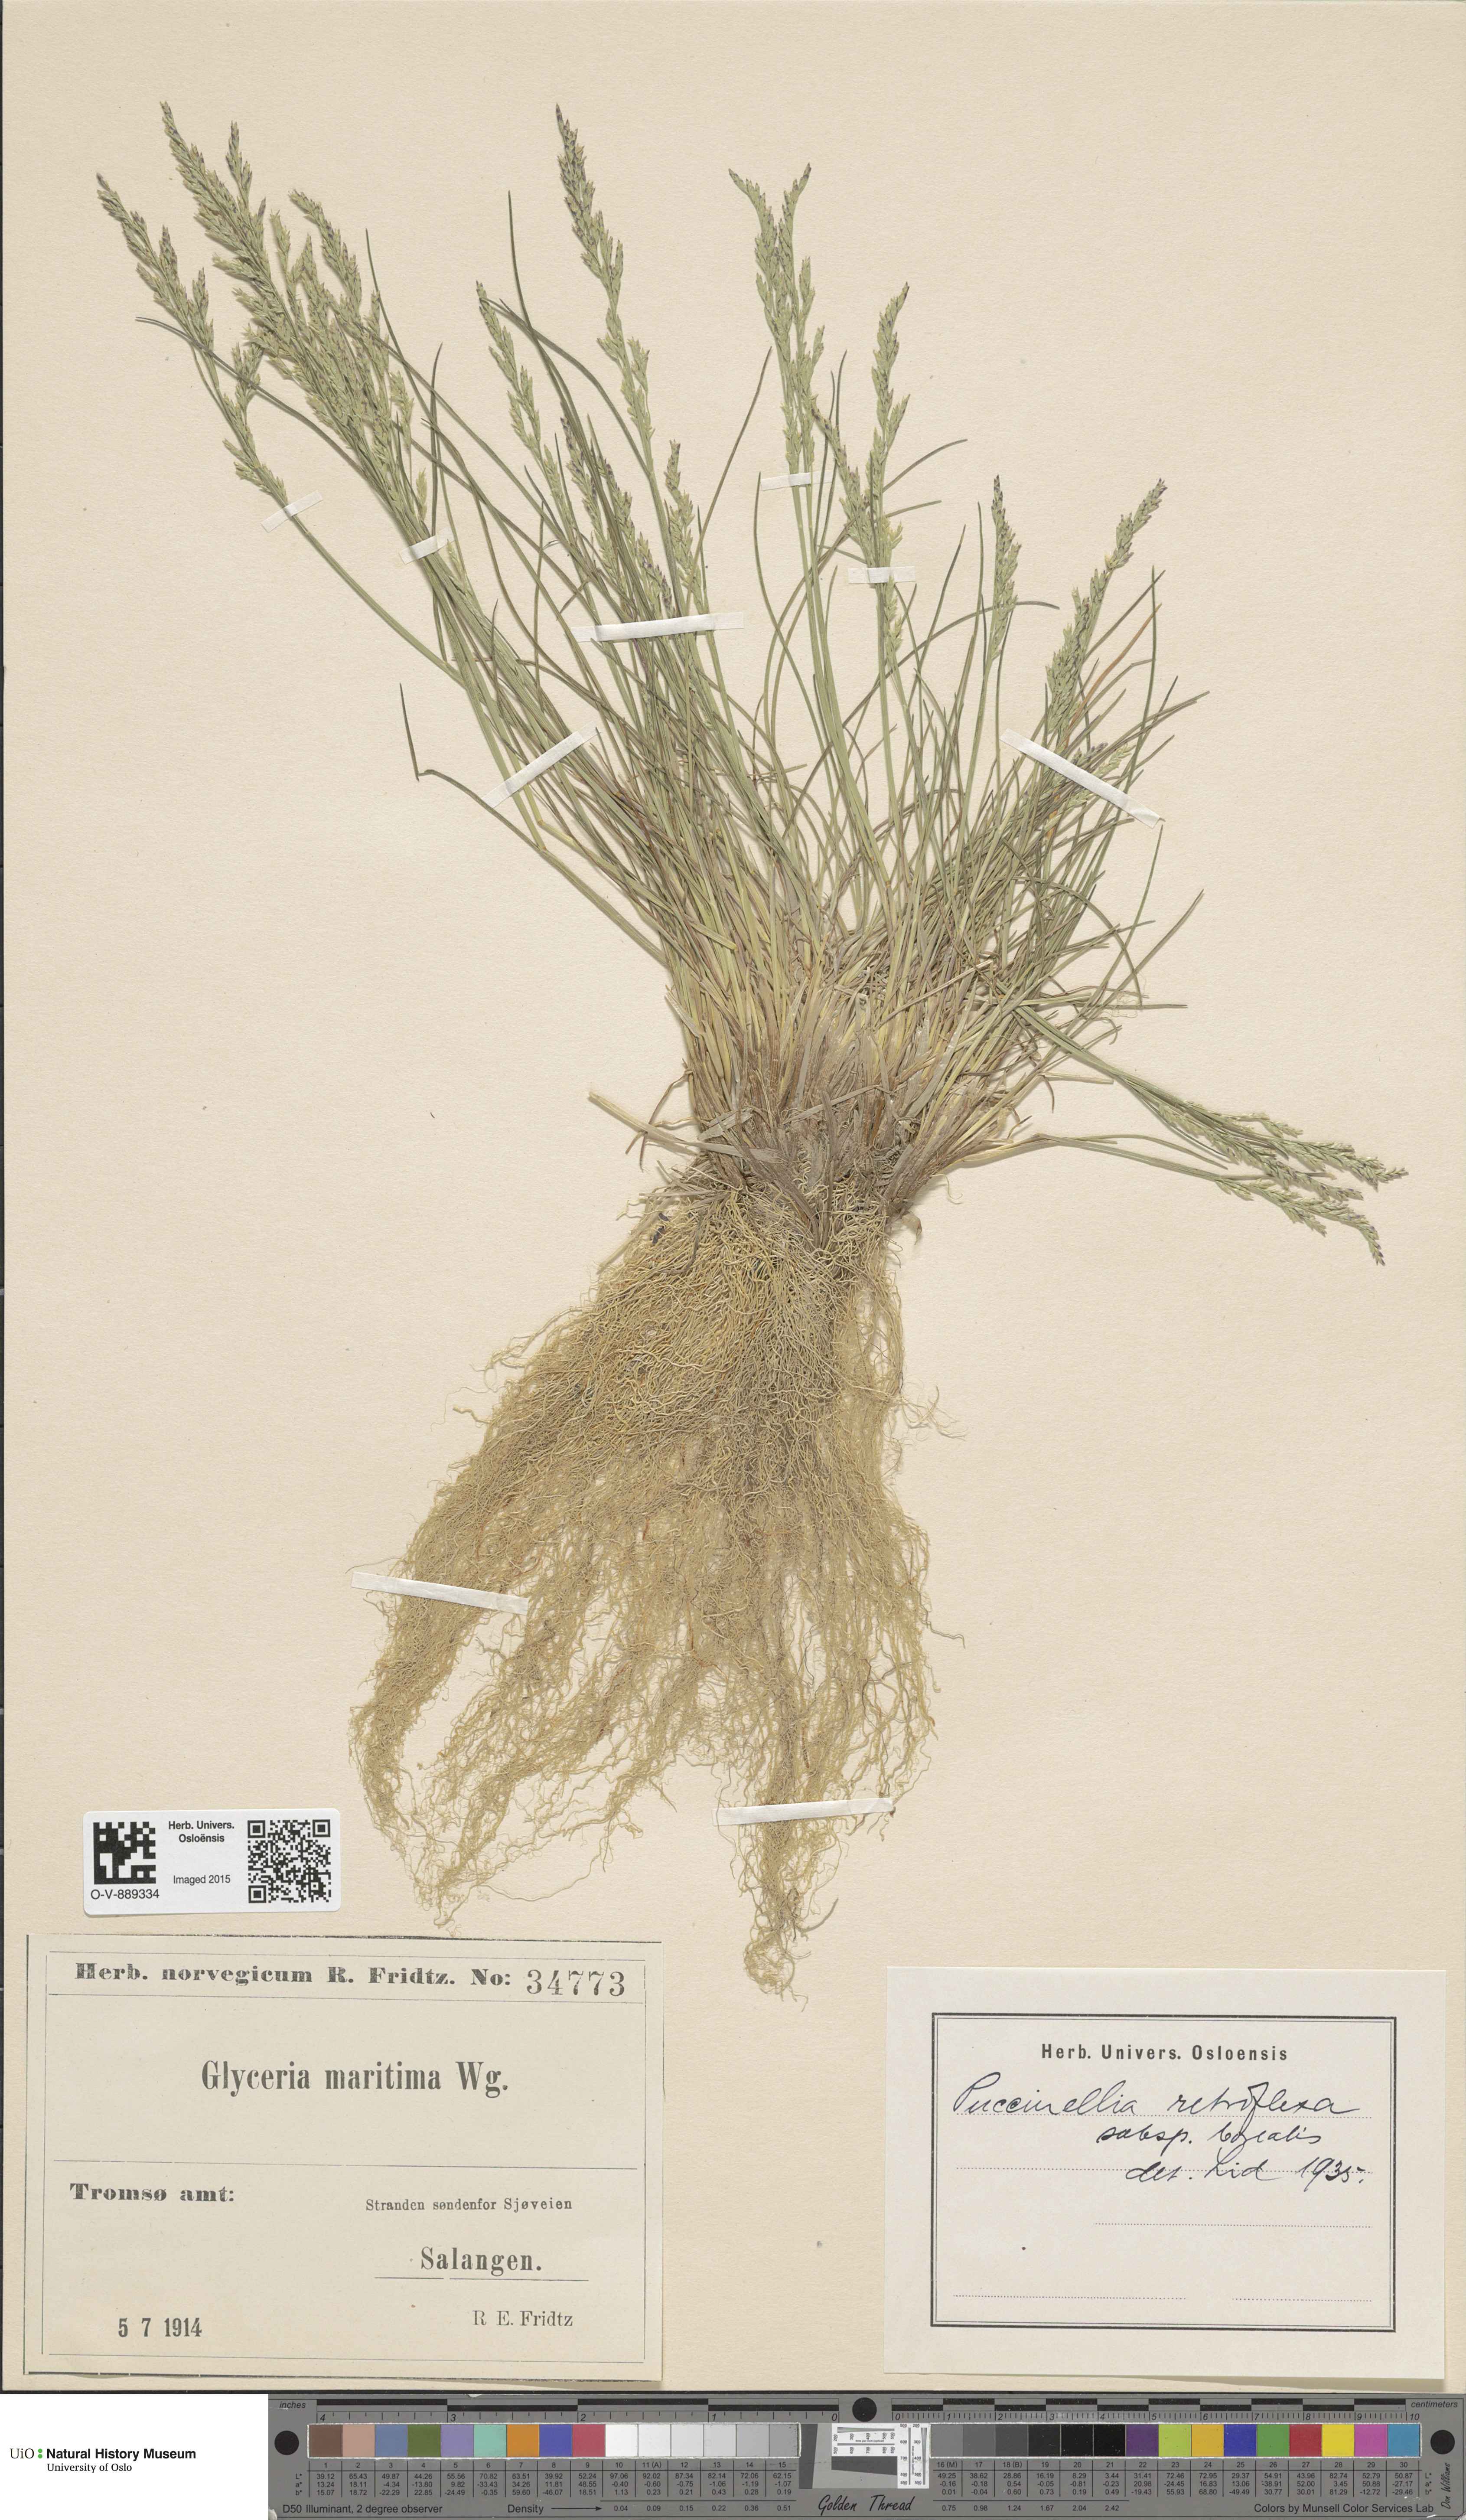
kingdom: Plantae
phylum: Tracheophyta
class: Liliopsida
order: Poales
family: Poaceae
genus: Puccinellia
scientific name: Puccinellia distans
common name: Weeping alkaligrass
